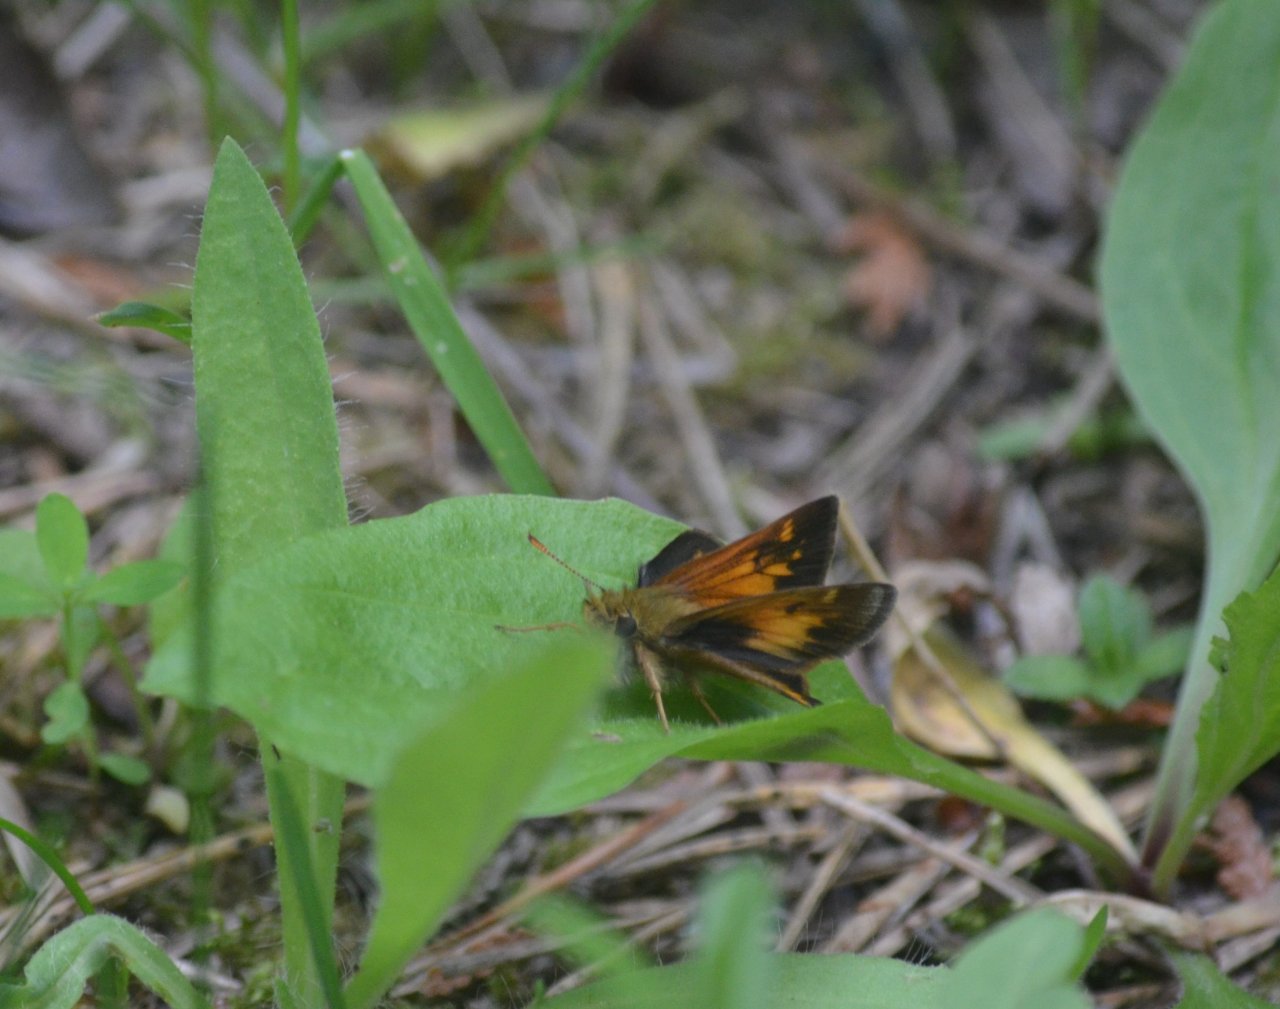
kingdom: Animalia
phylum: Arthropoda
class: Insecta
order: Lepidoptera
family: Hesperiidae
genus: Lon
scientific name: Lon hobomok
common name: Hobomok Skipper
